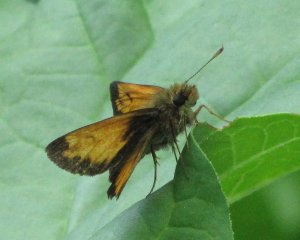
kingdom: Animalia
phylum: Arthropoda
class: Insecta
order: Lepidoptera
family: Hesperiidae
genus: Lon
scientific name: Lon hobomok
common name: Hobomok Skipper
